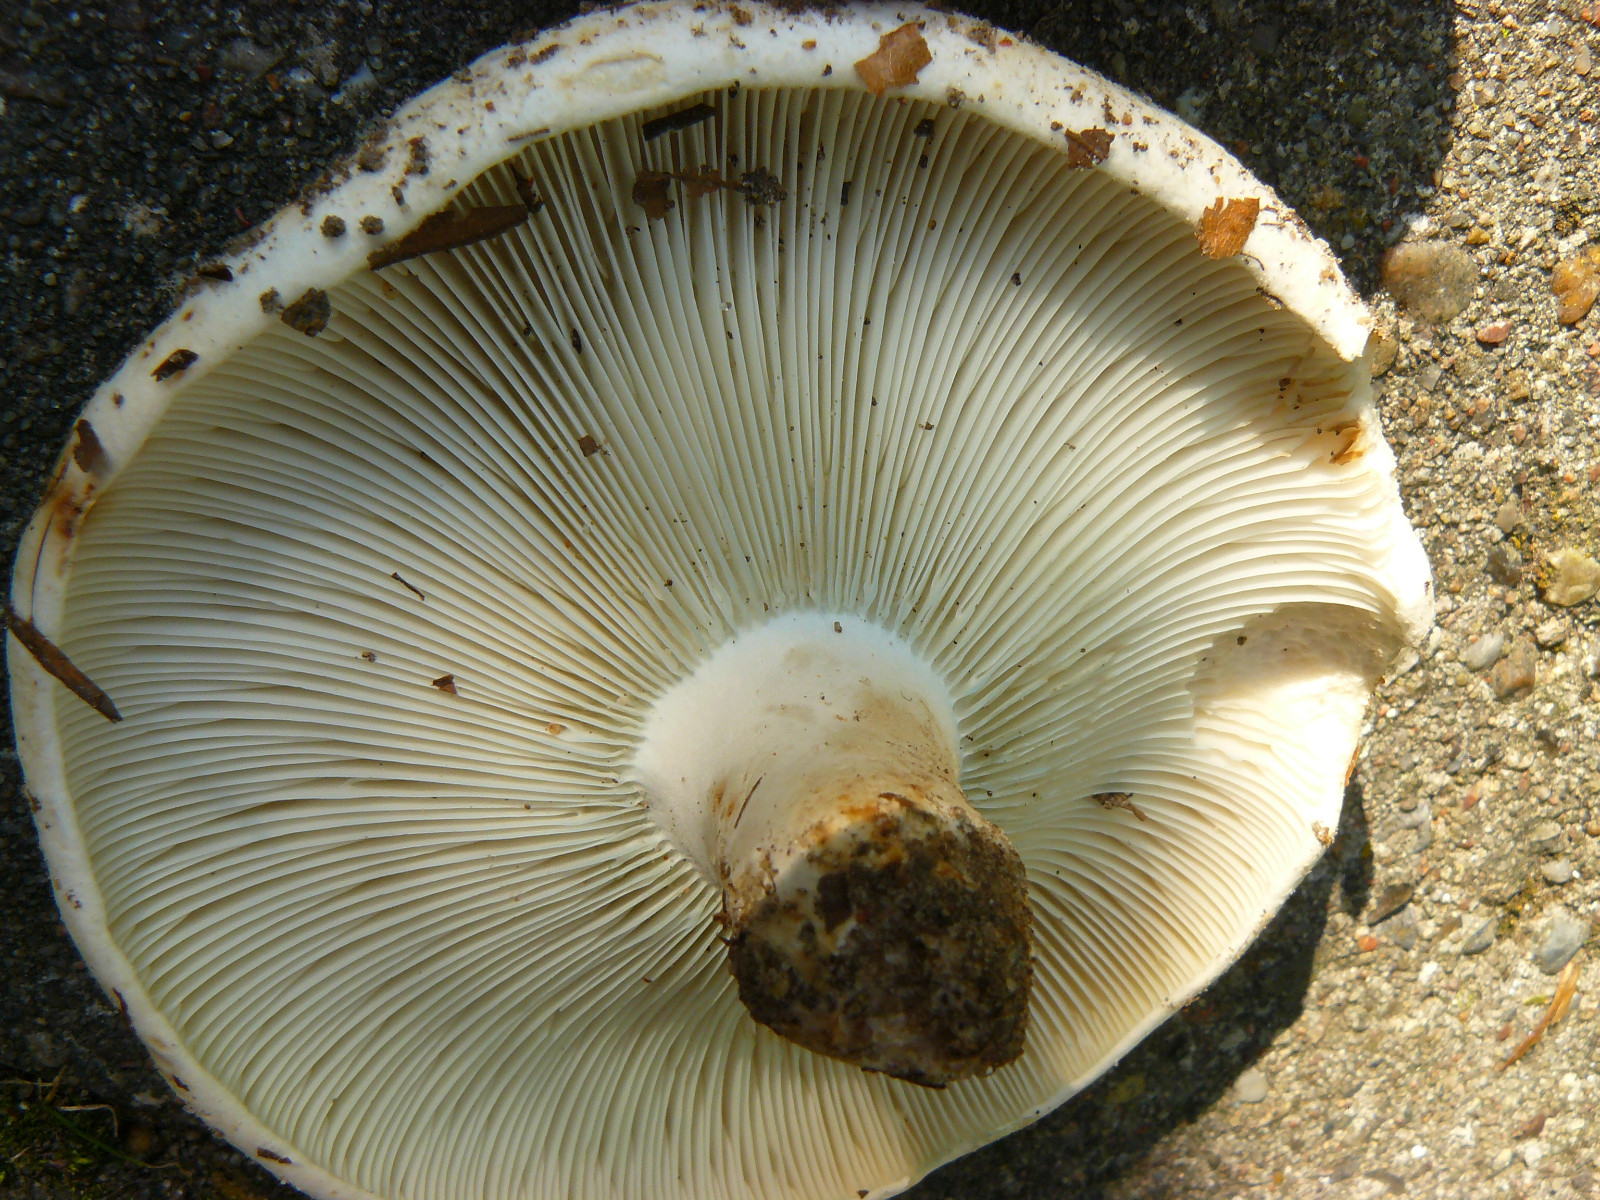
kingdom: Fungi
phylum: Basidiomycota
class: Agaricomycetes
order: Russulales
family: Russulaceae
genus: Russula
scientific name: Russula chloroides
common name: grønhalset tragt-skørhat
